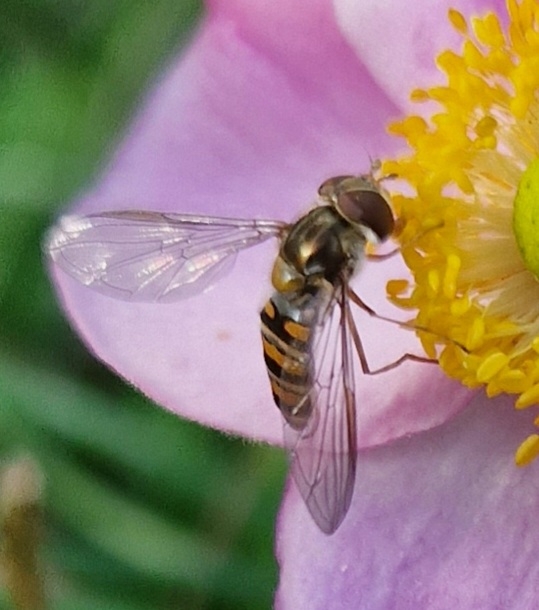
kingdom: Animalia
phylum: Arthropoda
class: Insecta
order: Diptera
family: Syrphidae
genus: Episyrphus
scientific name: Episyrphus balteatus
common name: Dobbeltbåndet svirreflue
